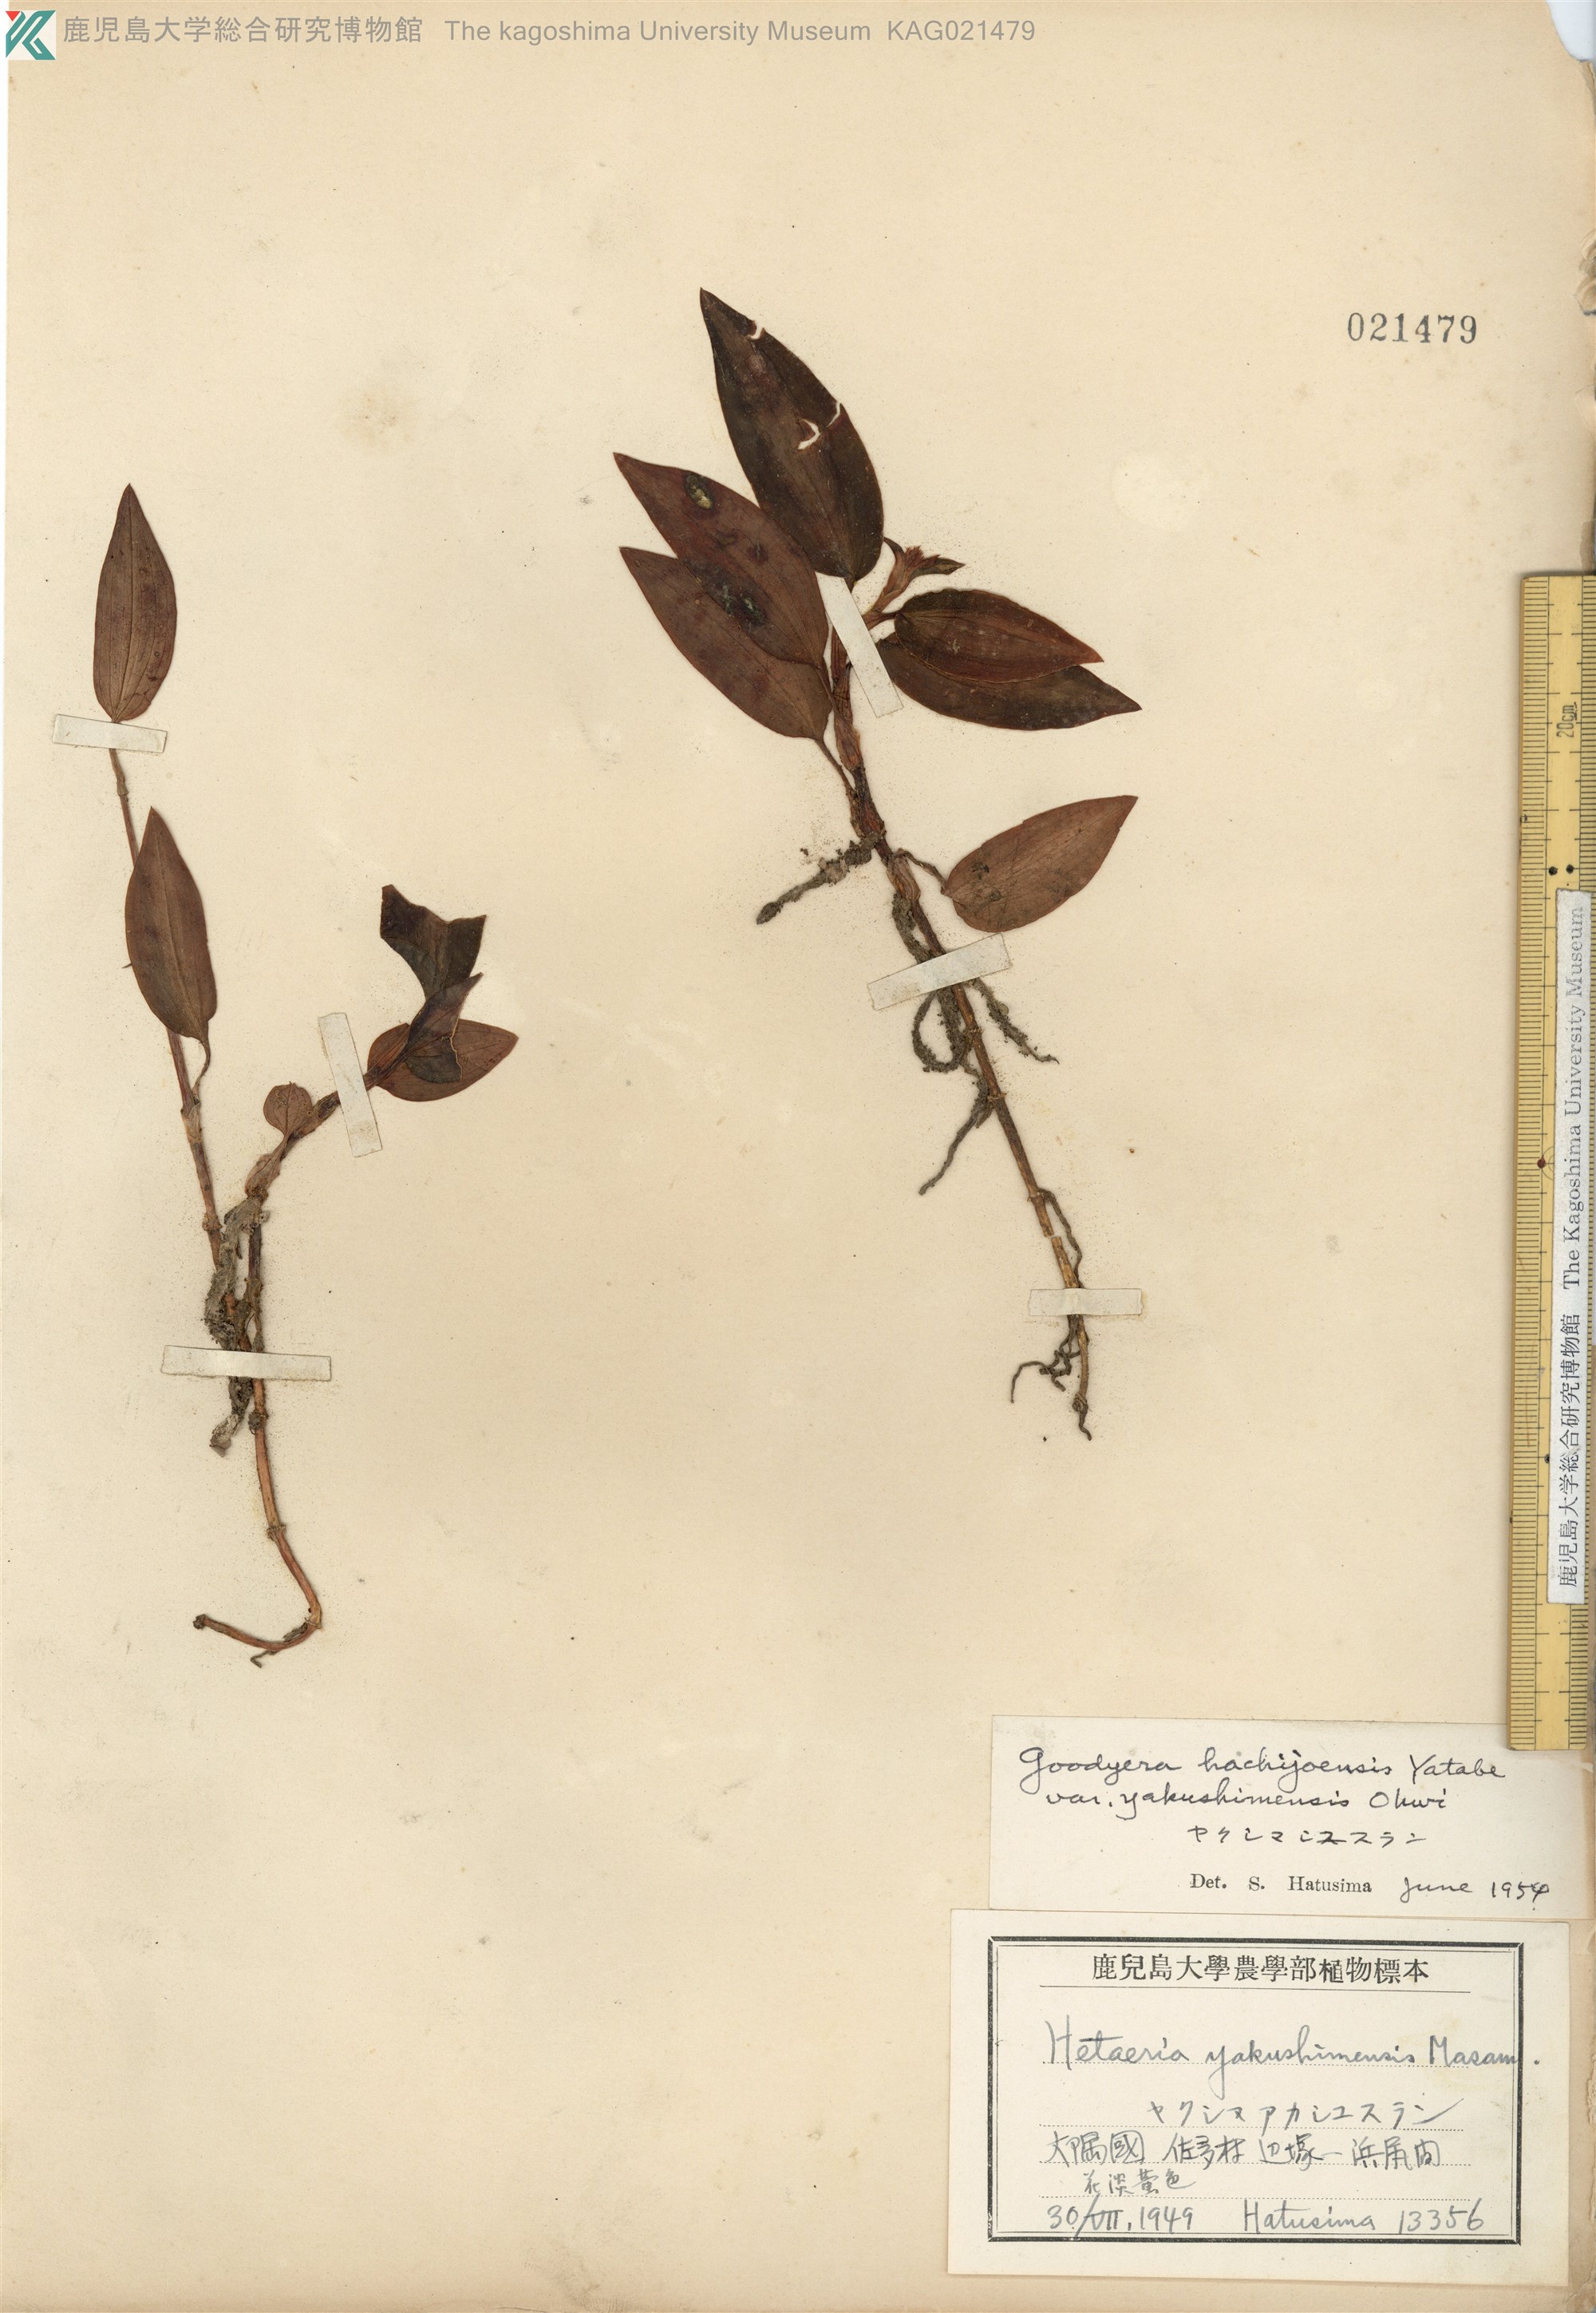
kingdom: Plantae
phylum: Tracheophyta
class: Liliopsida
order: Asparagales
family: Orchidaceae
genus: Goodyera
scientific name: Goodyera hachijoensis
